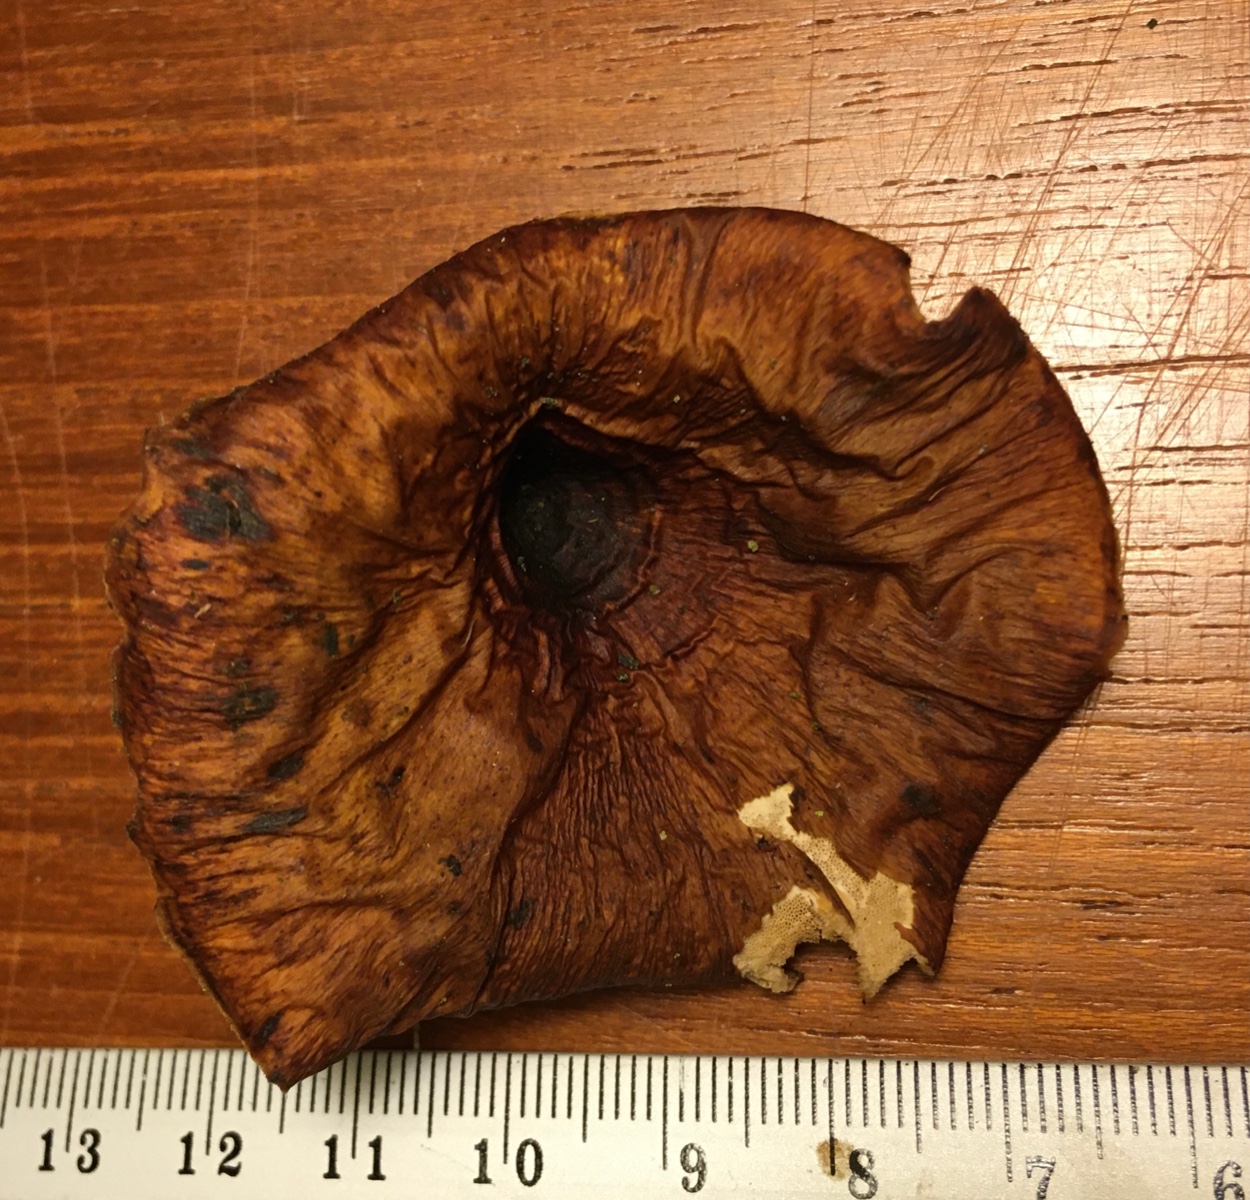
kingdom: Fungi
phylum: Basidiomycota
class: Agaricomycetes
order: Polyporales
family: Polyporaceae
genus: Picipes
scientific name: Picipes tubaeformis
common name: trompet-stilkporesvamp
